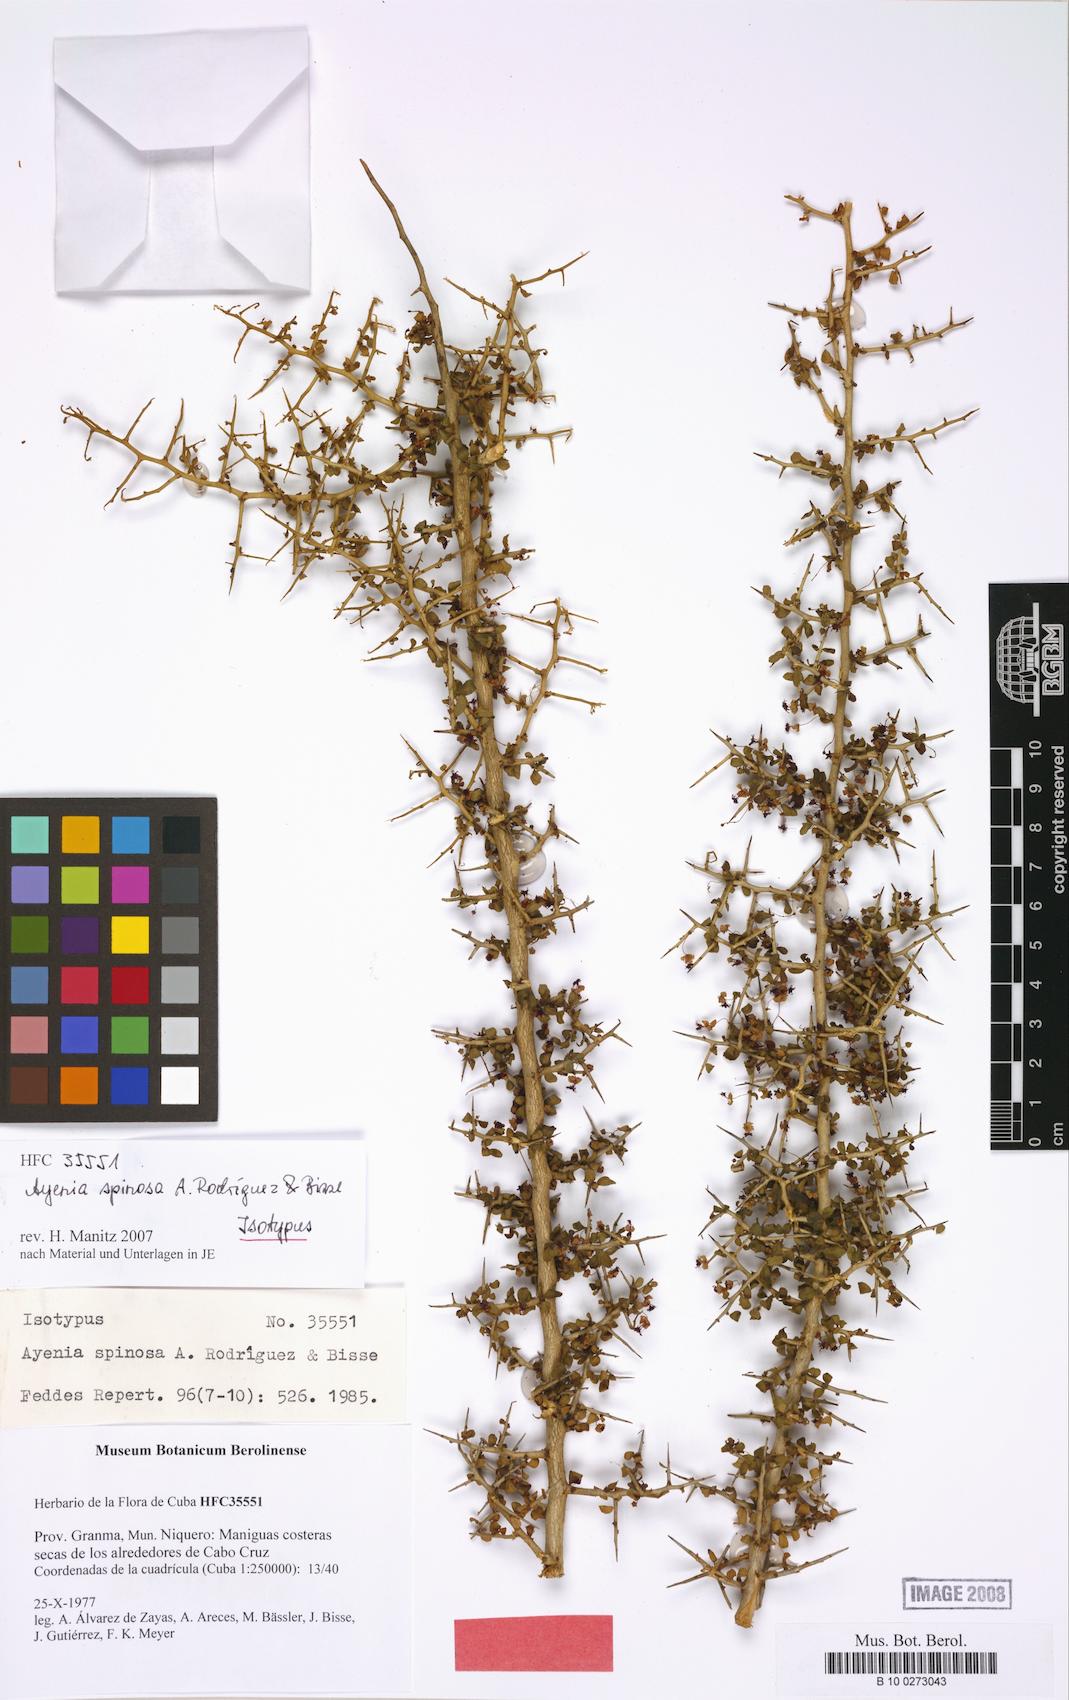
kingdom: Plantae
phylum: Tracheophyta
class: Magnoliopsida
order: Malvales
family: Malvaceae
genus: Ayenia
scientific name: Ayenia spinosa
